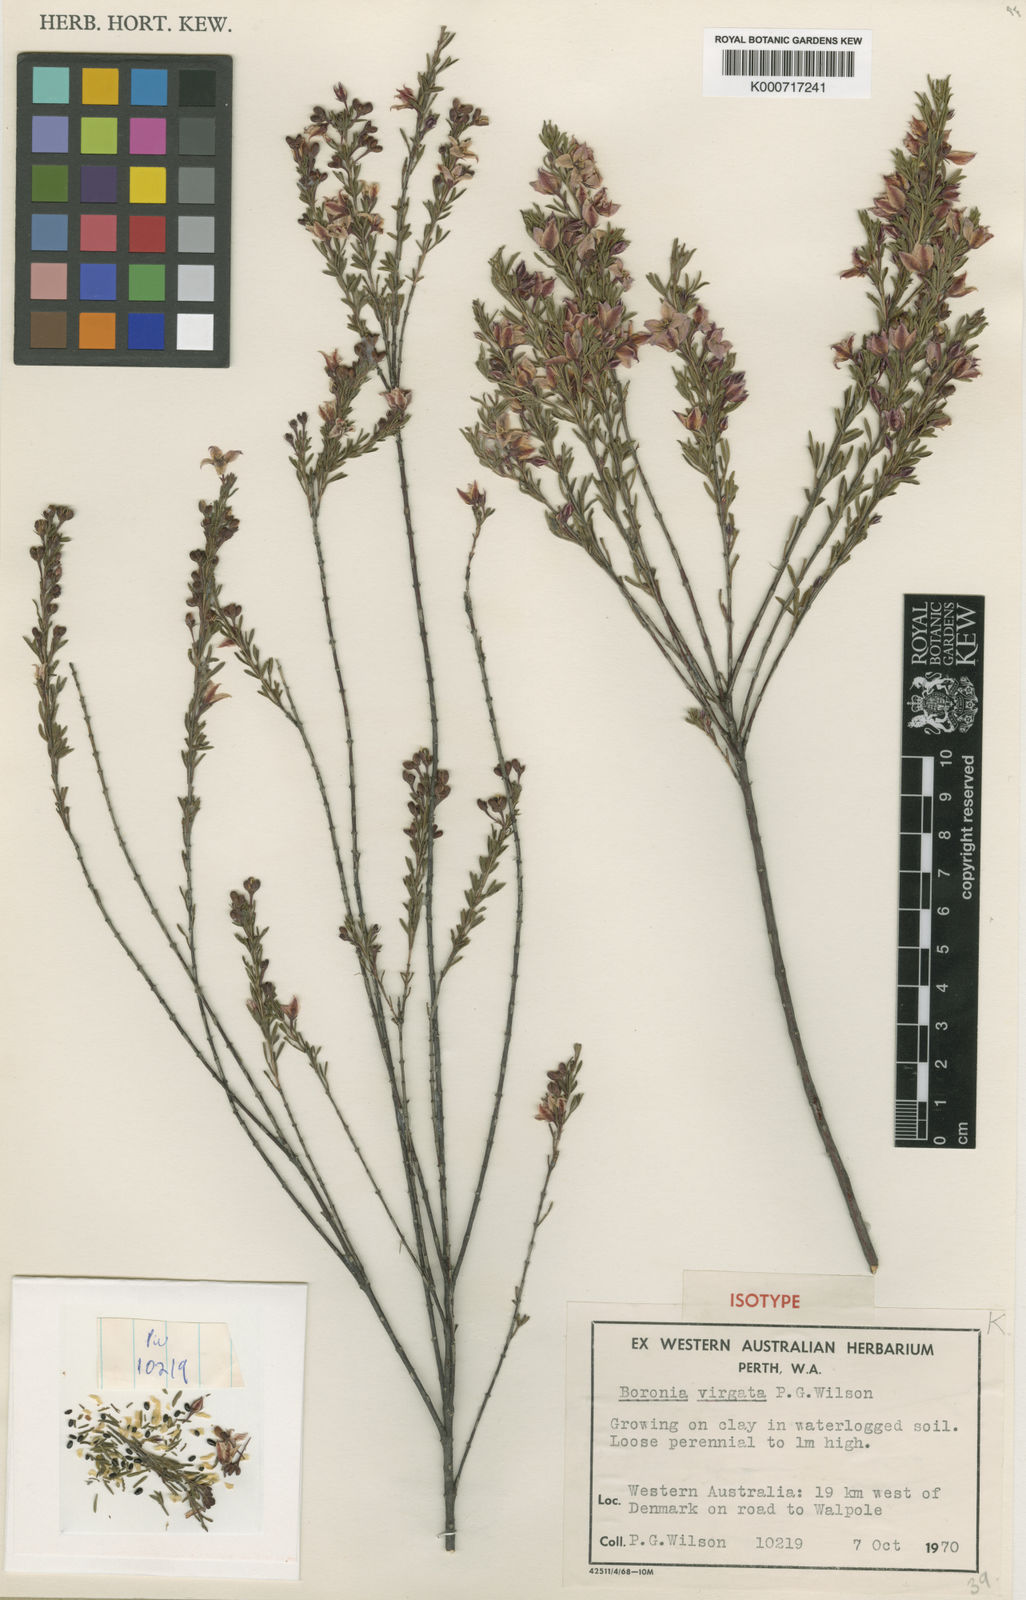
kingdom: Plantae
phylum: Tracheophyta
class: Magnoliopsida
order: Sapindales
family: Rutaceae
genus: Boronia
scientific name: Boronia virgata
